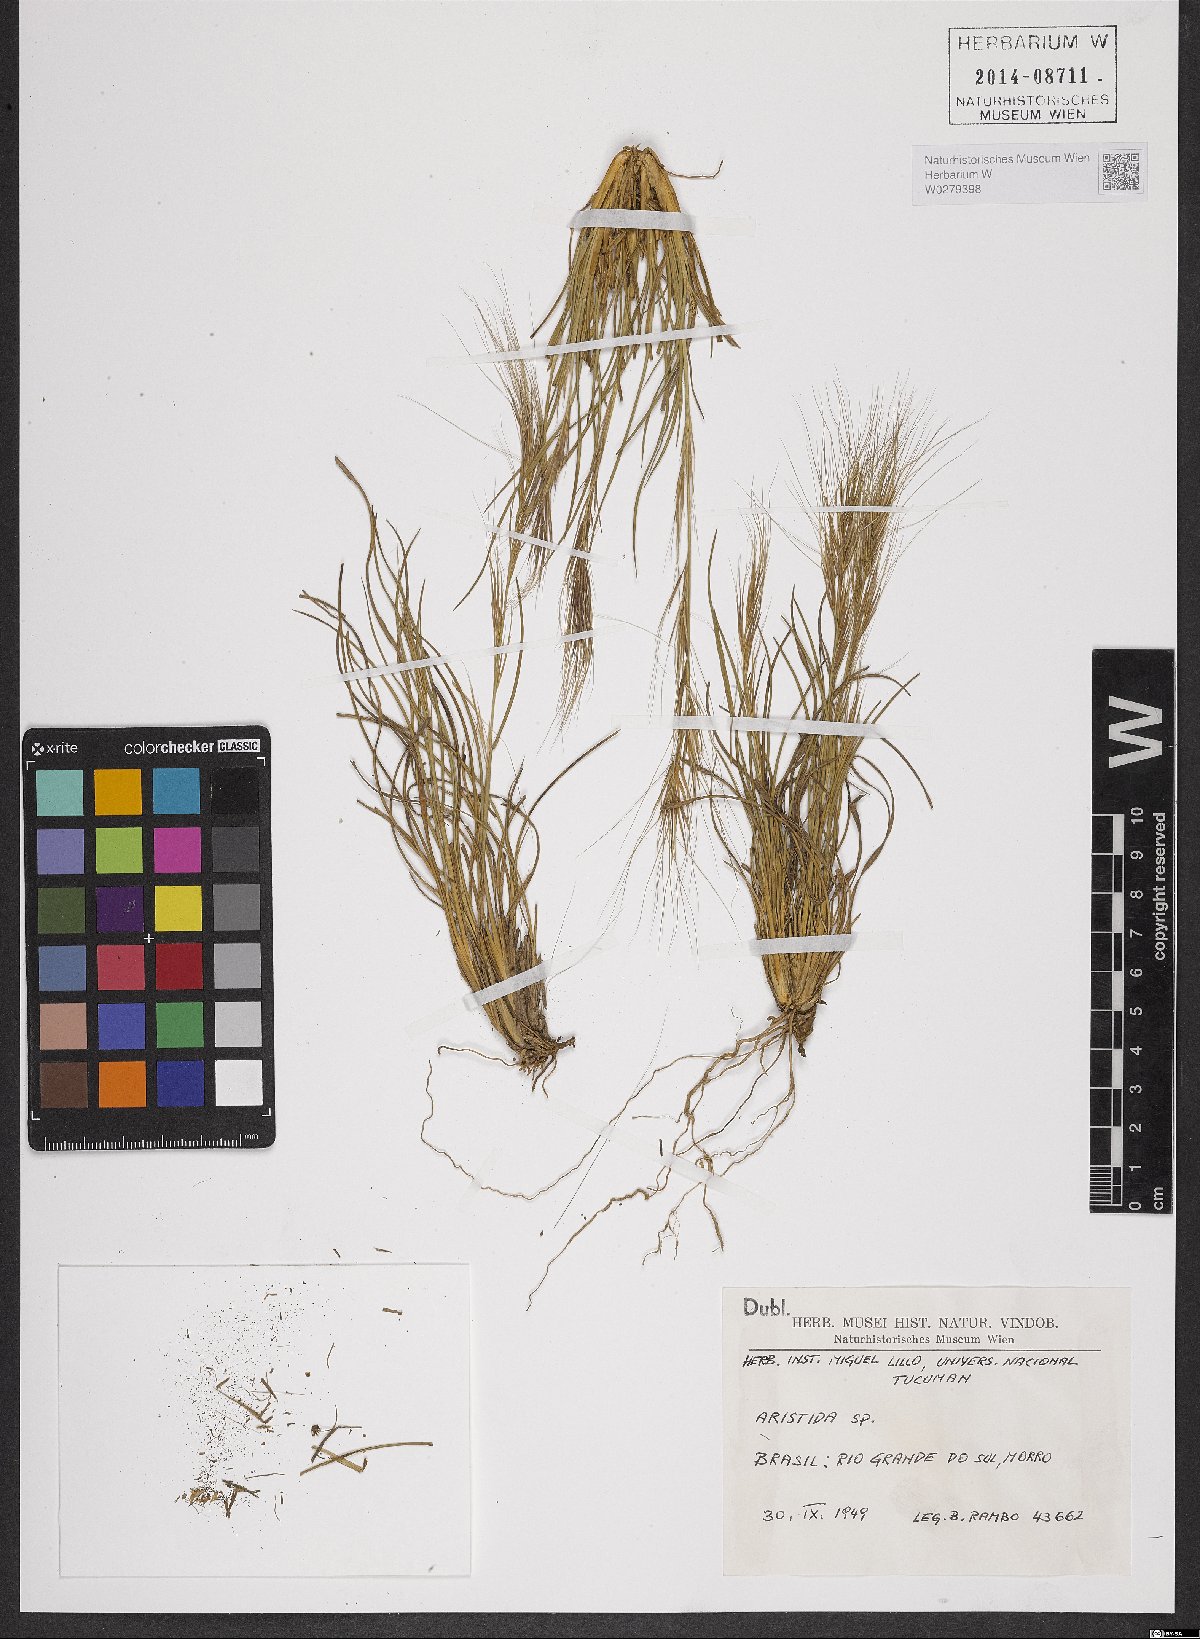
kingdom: Plantae
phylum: Tracheophyta
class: Liliopsida
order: Poales
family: Poaceae
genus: Aristida
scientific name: Aristida
